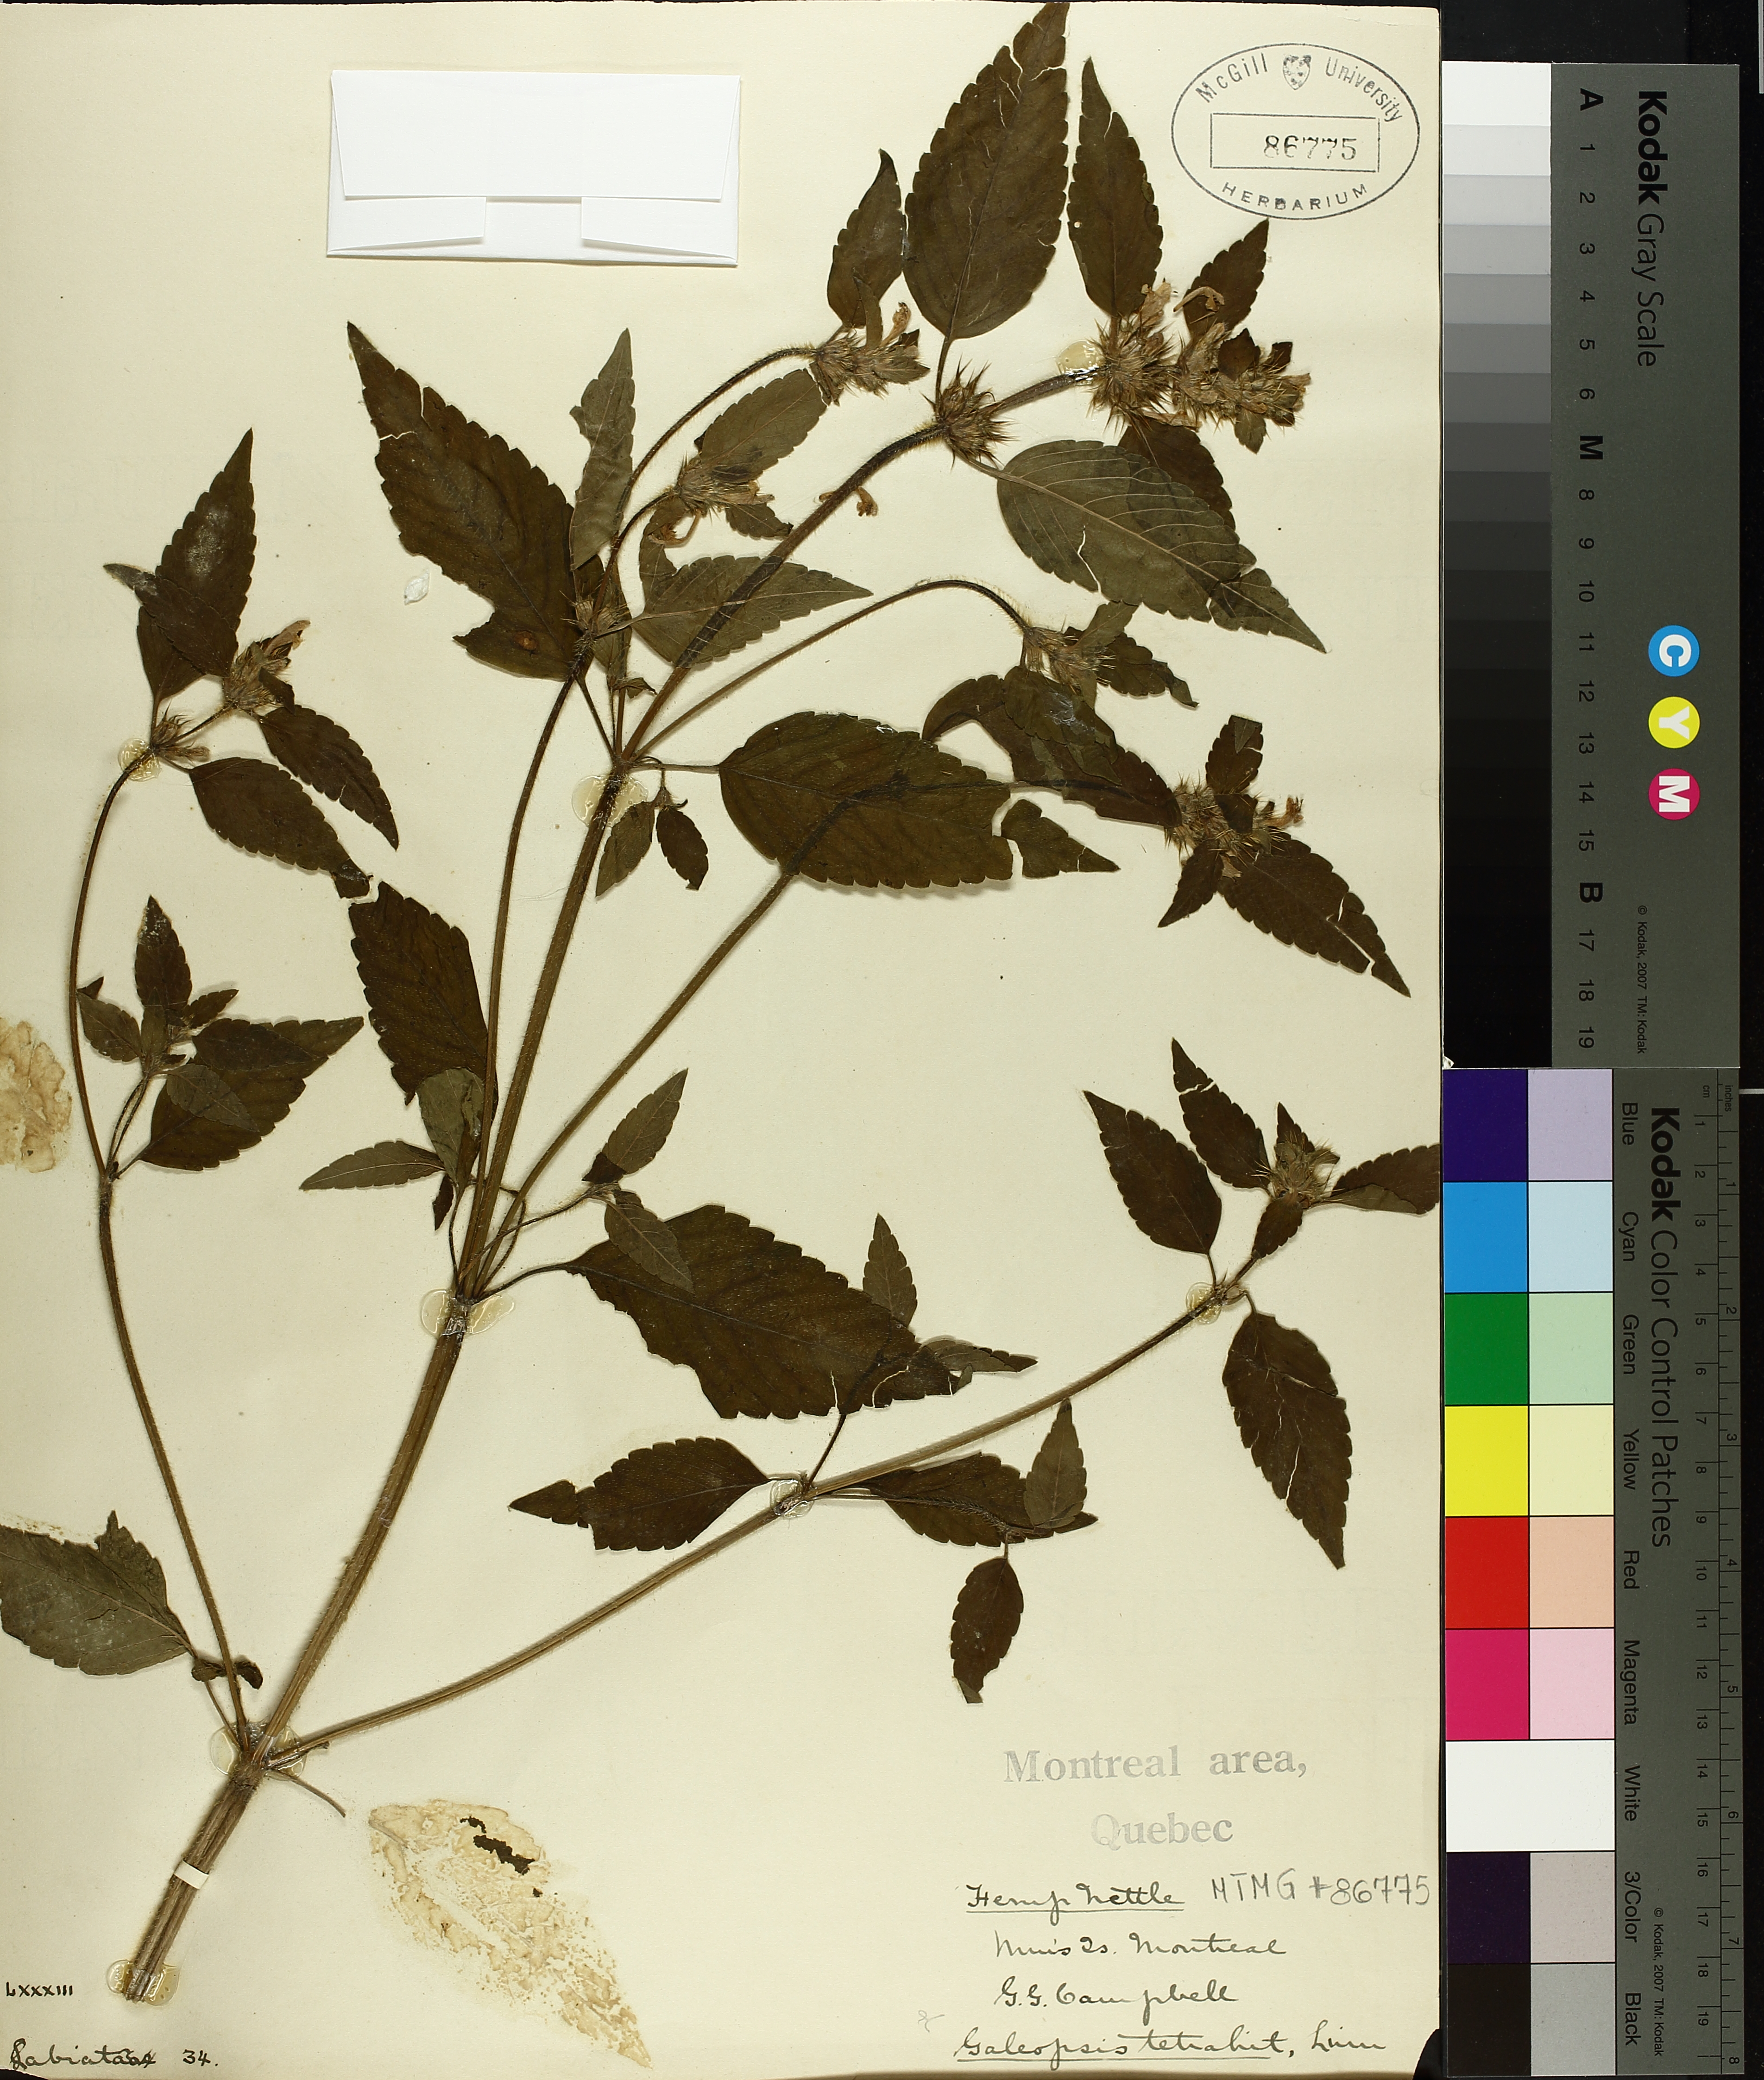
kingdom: Plantae
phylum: Tracheophyta
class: Magnoliopsida
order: Lamiales
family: Lamiaceae
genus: Galeopsis
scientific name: Galeopsis tetrahit
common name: Common hemp-nettle
